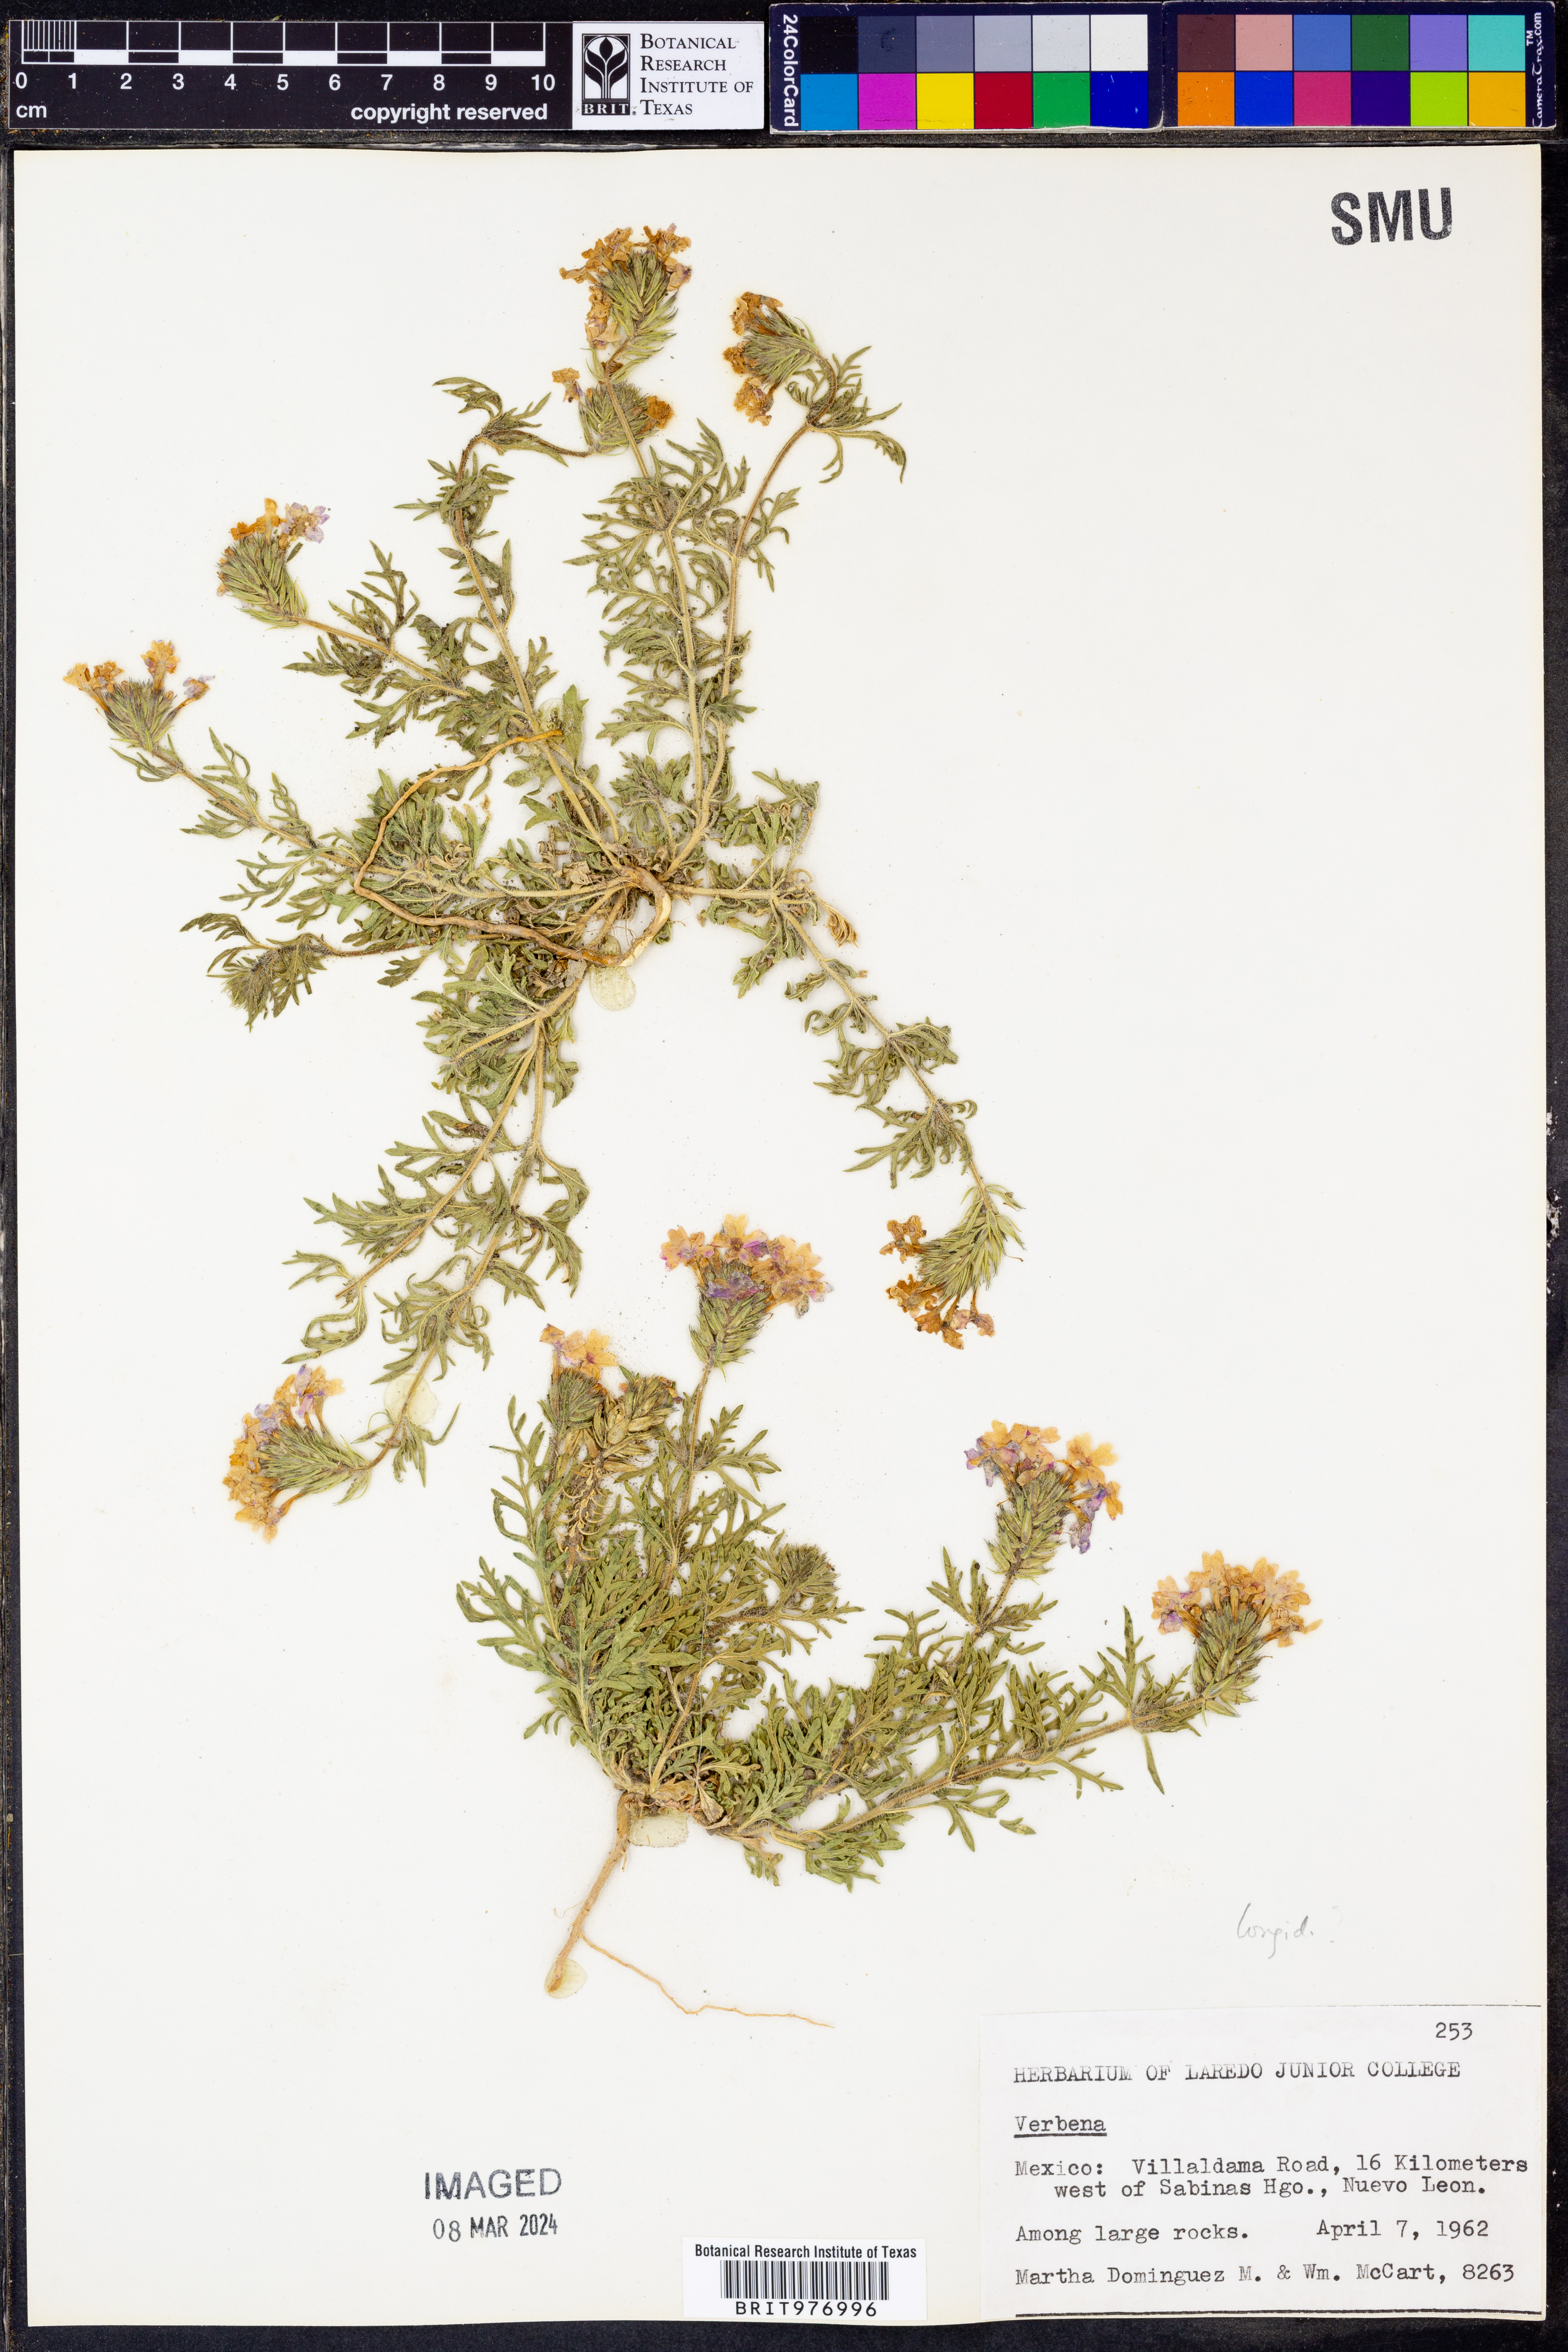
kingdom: Plantae
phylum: Tracheophyta
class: Magnoliopsida
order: Lamiales
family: Verbenaceae
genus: Verbena
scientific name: Verbena polyantha
